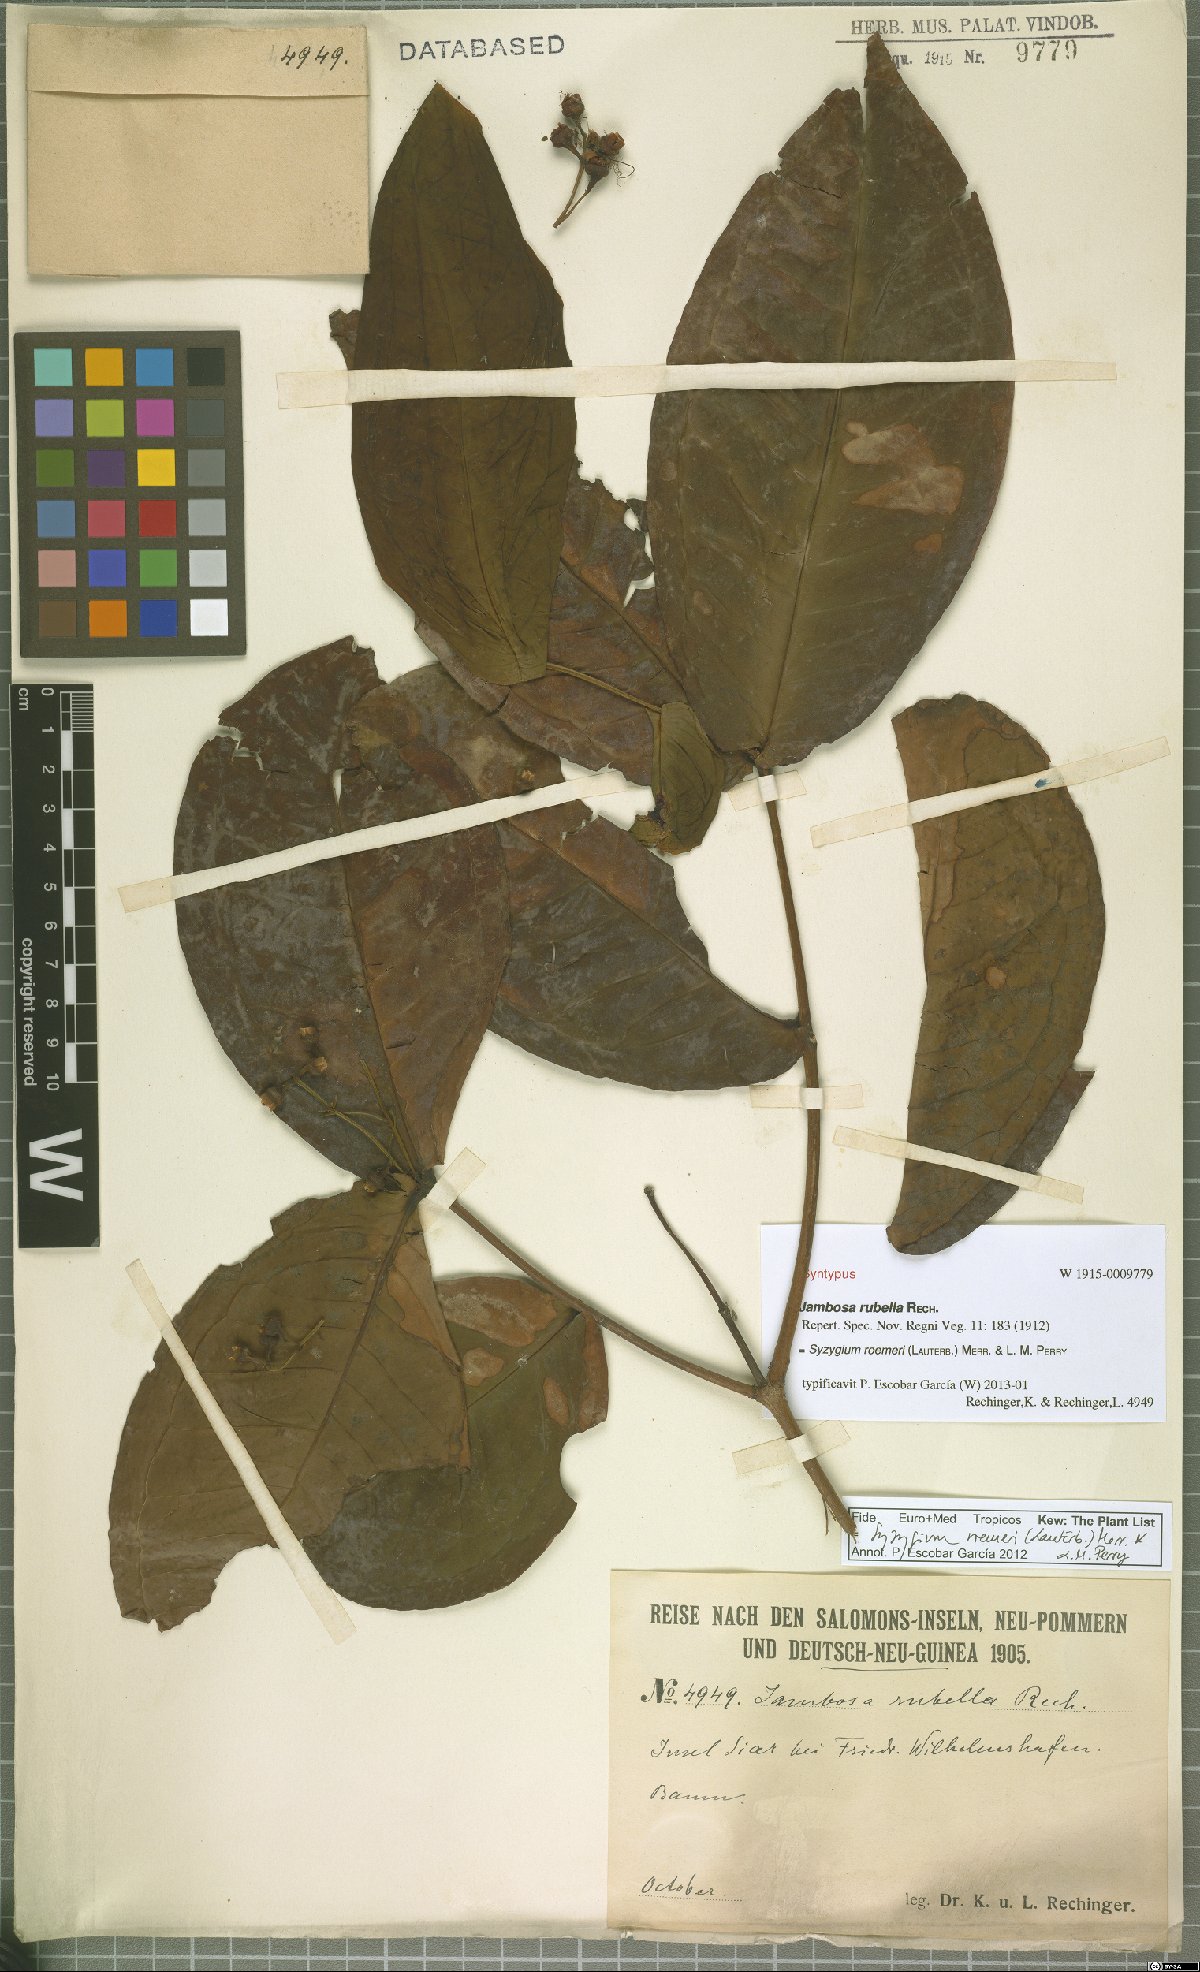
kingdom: Plantae
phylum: Tracheophyta
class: Magnoliopsida
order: Myrtales
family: Myrtaceae
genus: Syzygium
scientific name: Syzygium roemeri
